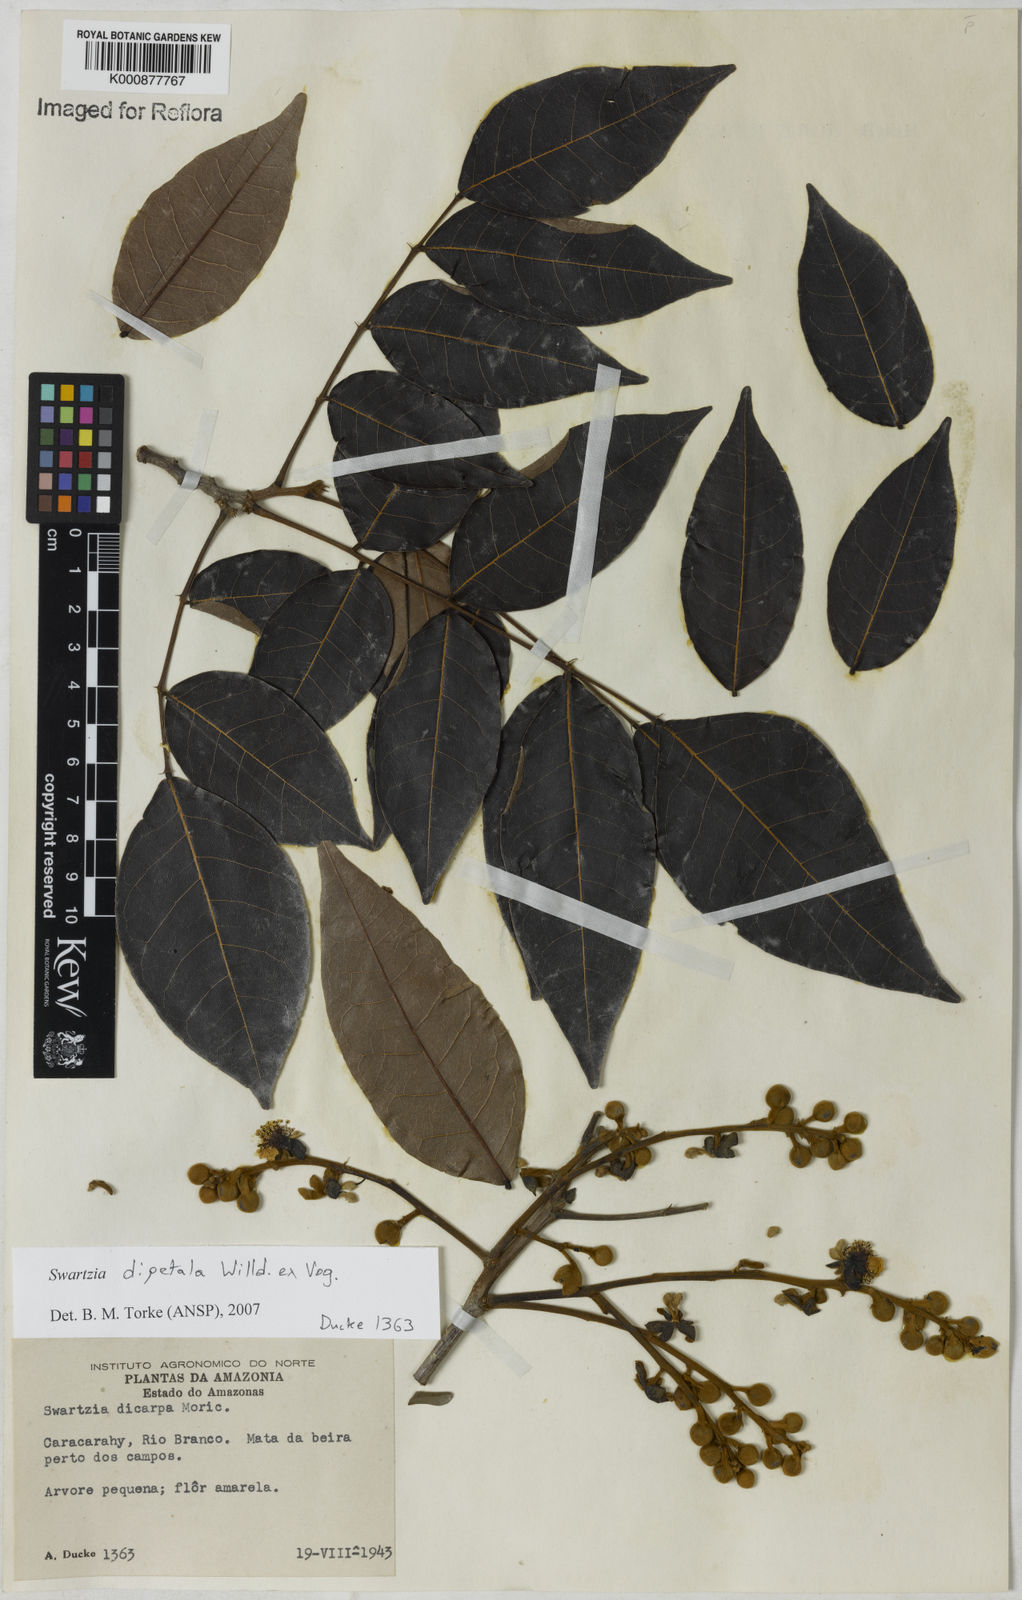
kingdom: Plantae
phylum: Tracheophyta
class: Magnoliopsida
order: Fabales
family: Fabaceae
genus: Swartzia
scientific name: Swartzia dipetala
